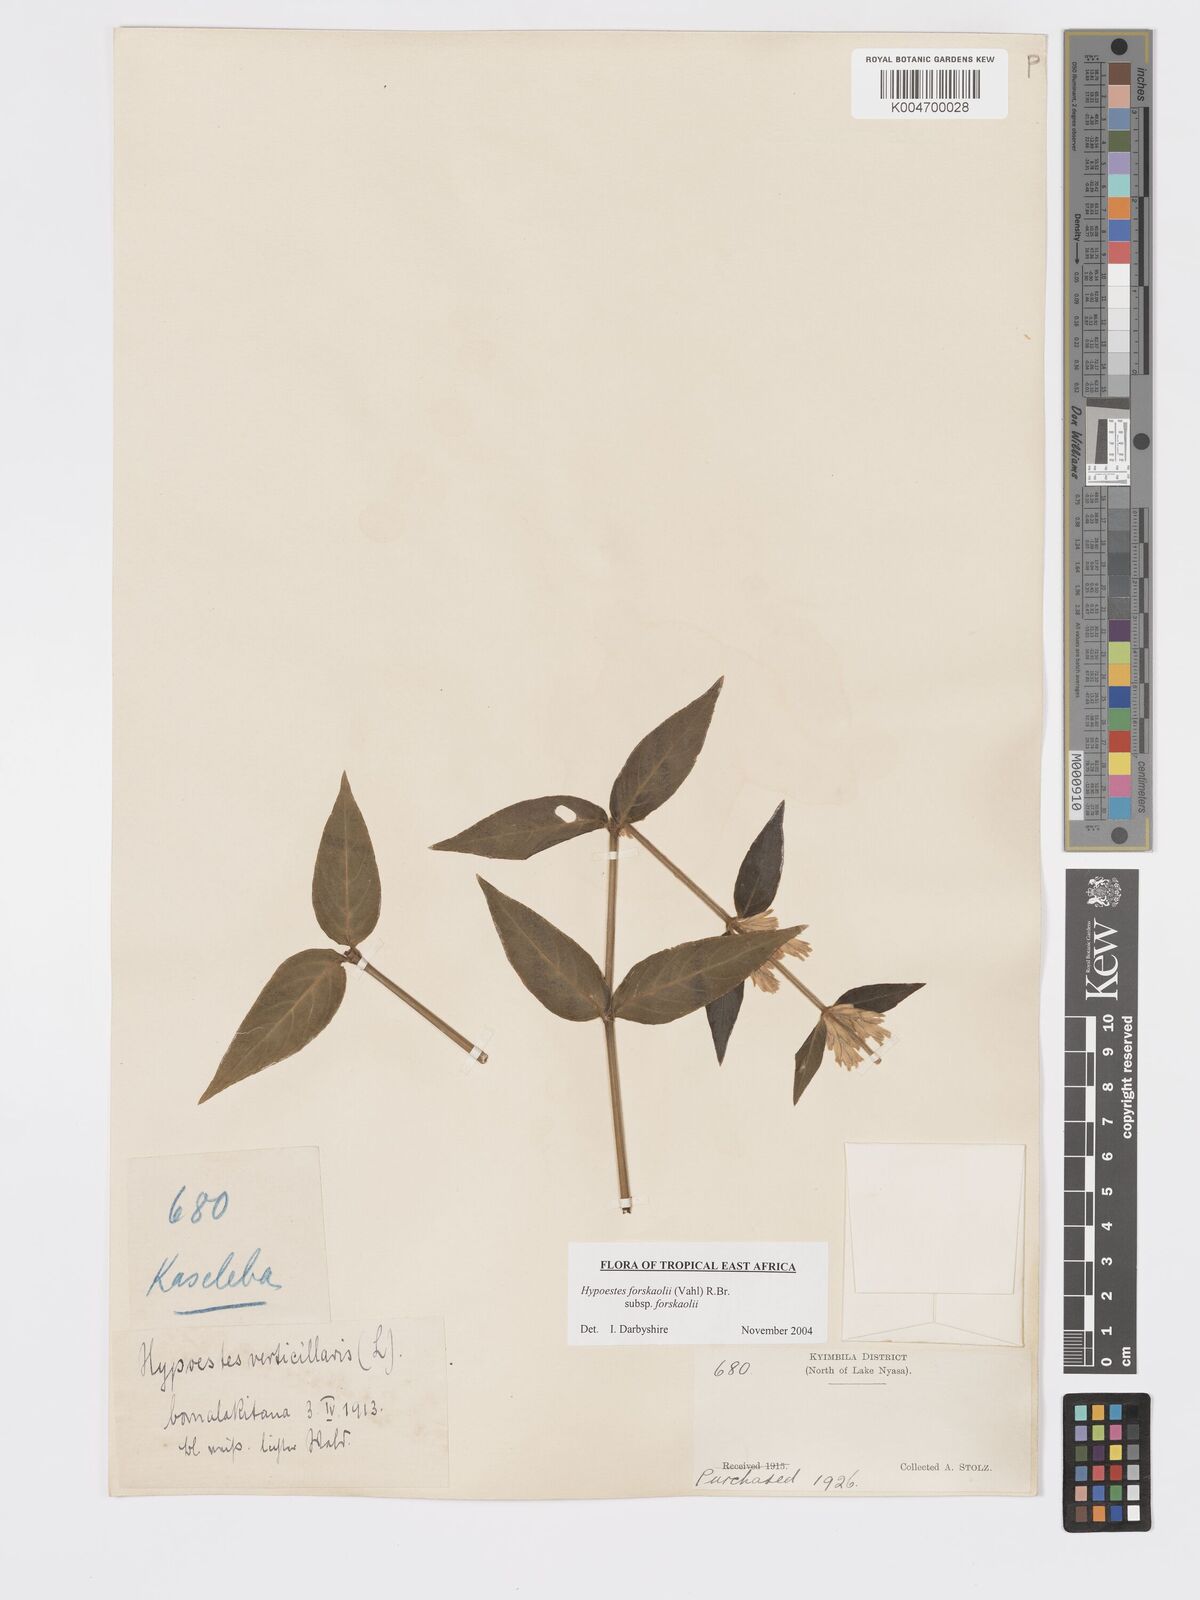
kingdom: Plantae
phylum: Tracheophyta
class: Magnoliopsida
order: Lamiales
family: Acanthaceae
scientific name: Acanthaceae
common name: Acanthaceae
